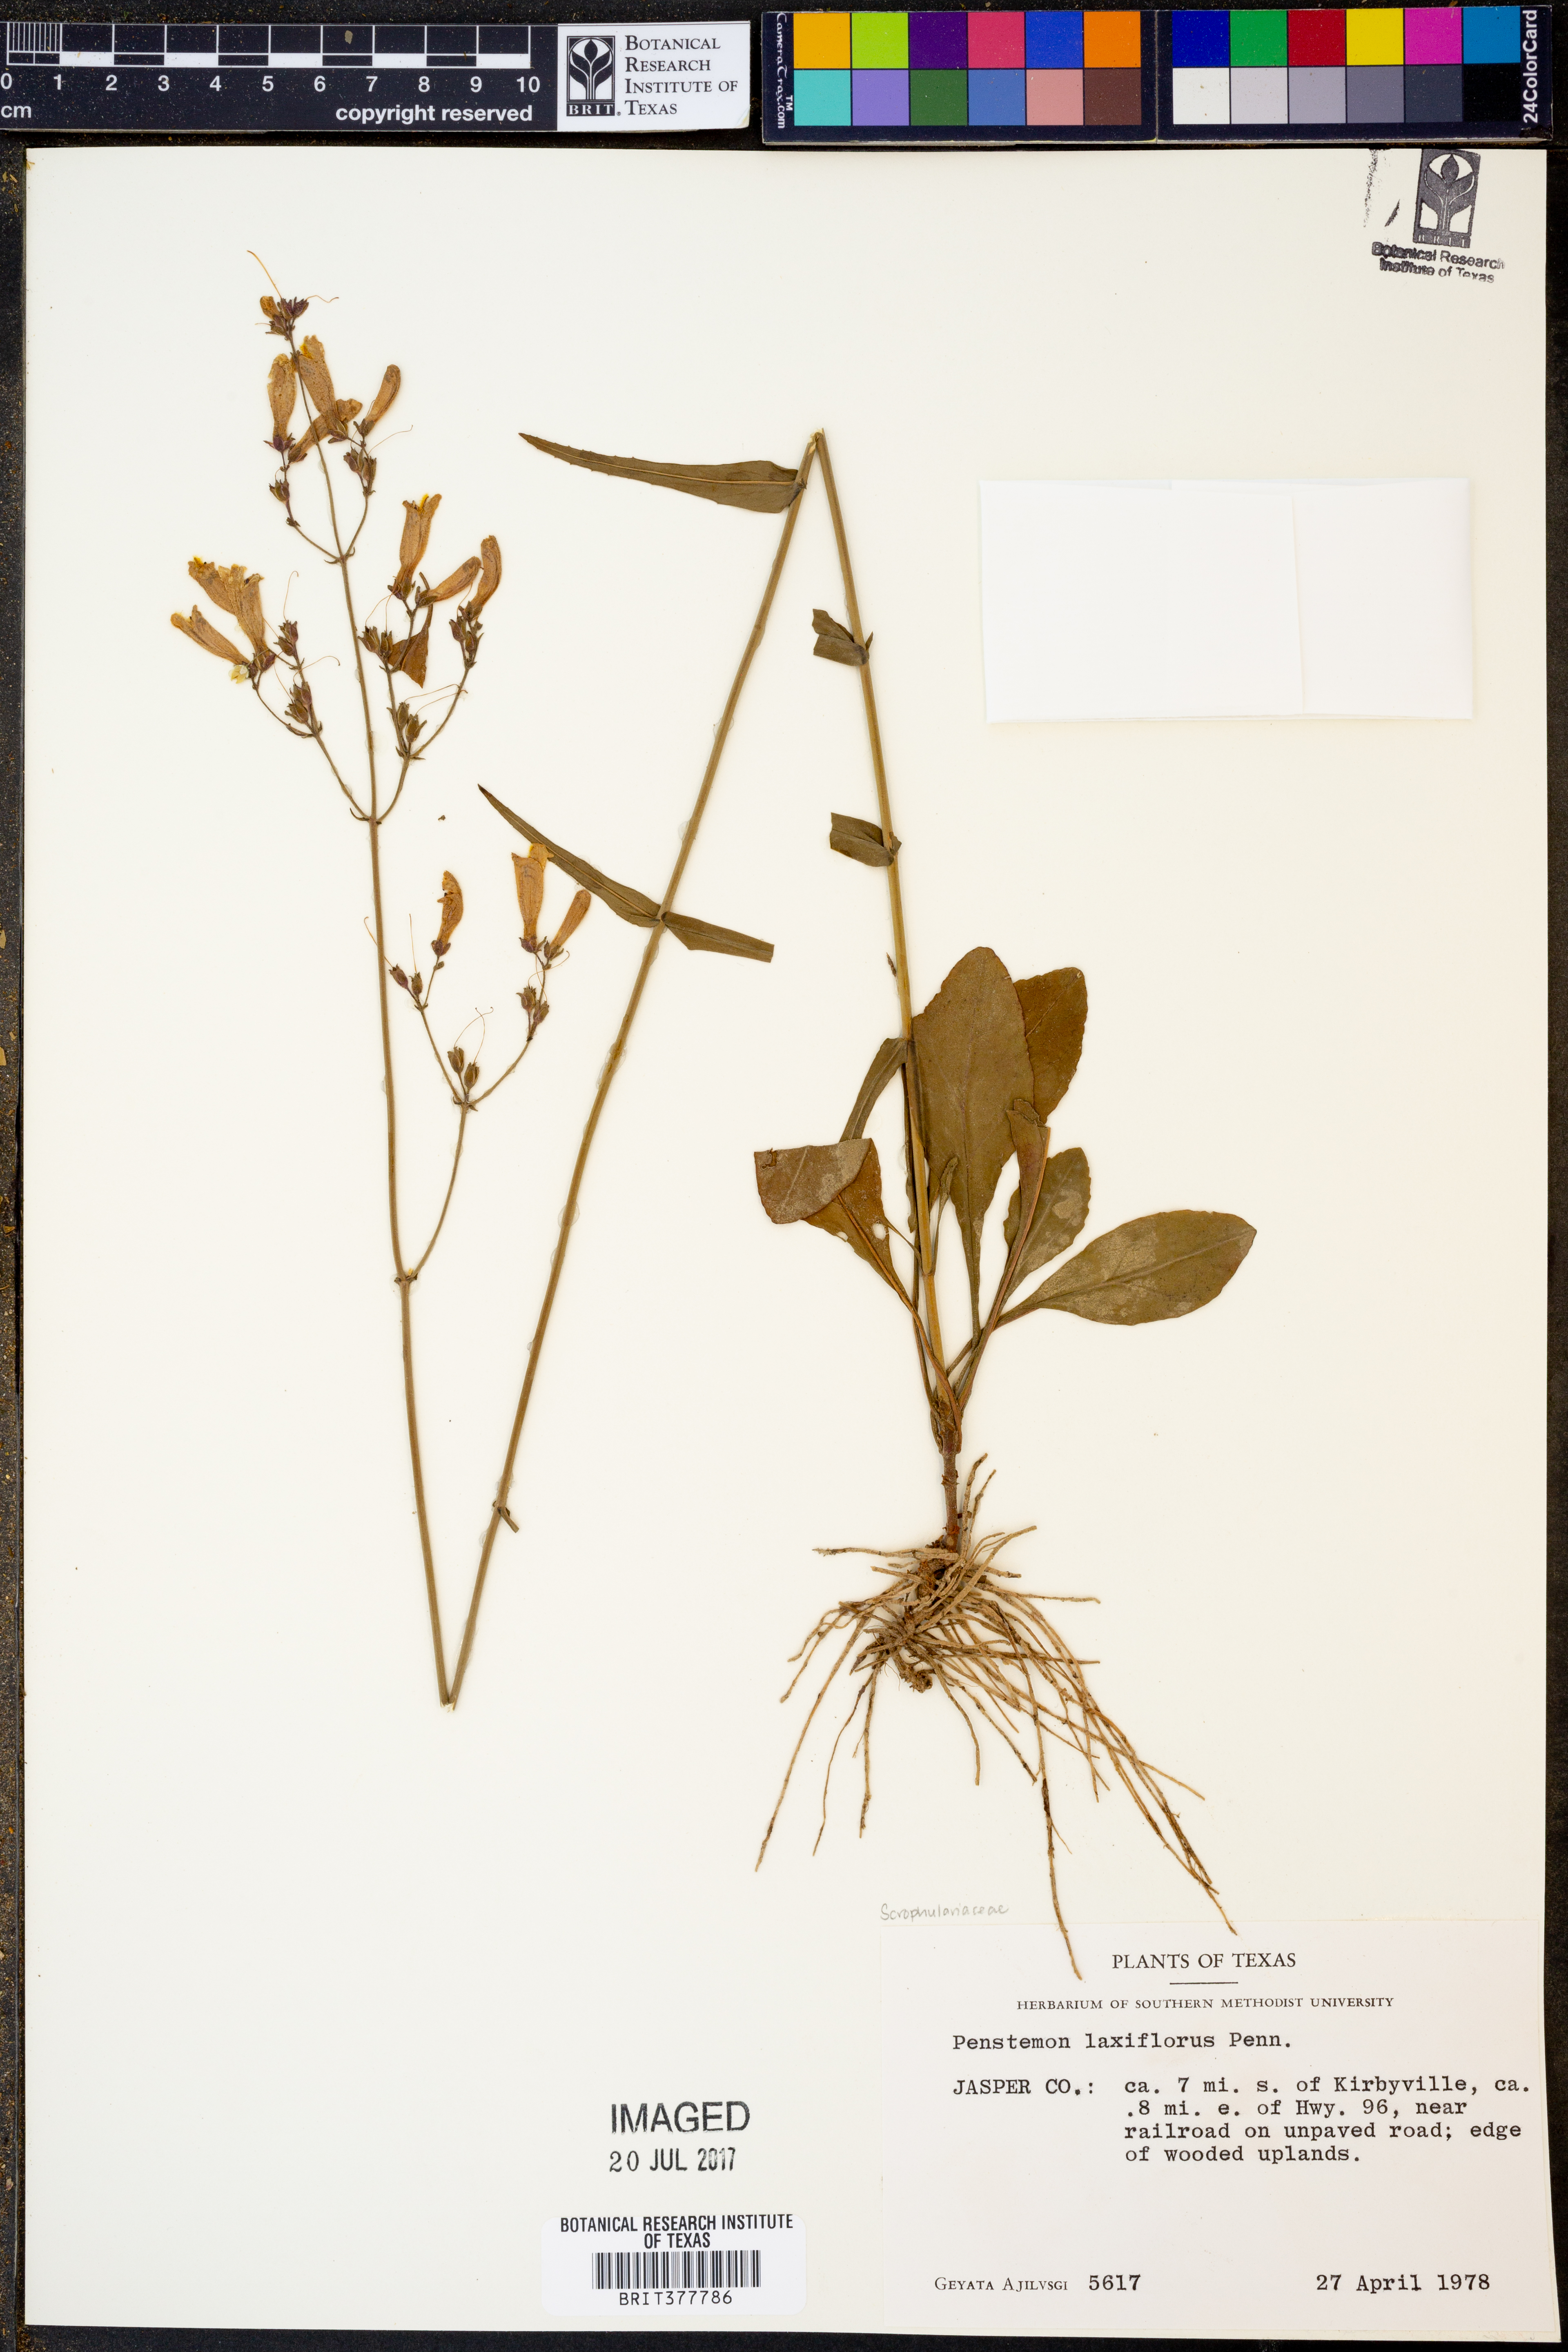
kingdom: Plantae
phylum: Tracheophyta
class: Magnoliopsida
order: Lamiales
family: Plantaginaceae
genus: Penstemon
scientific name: Penstemon laxiflorus
